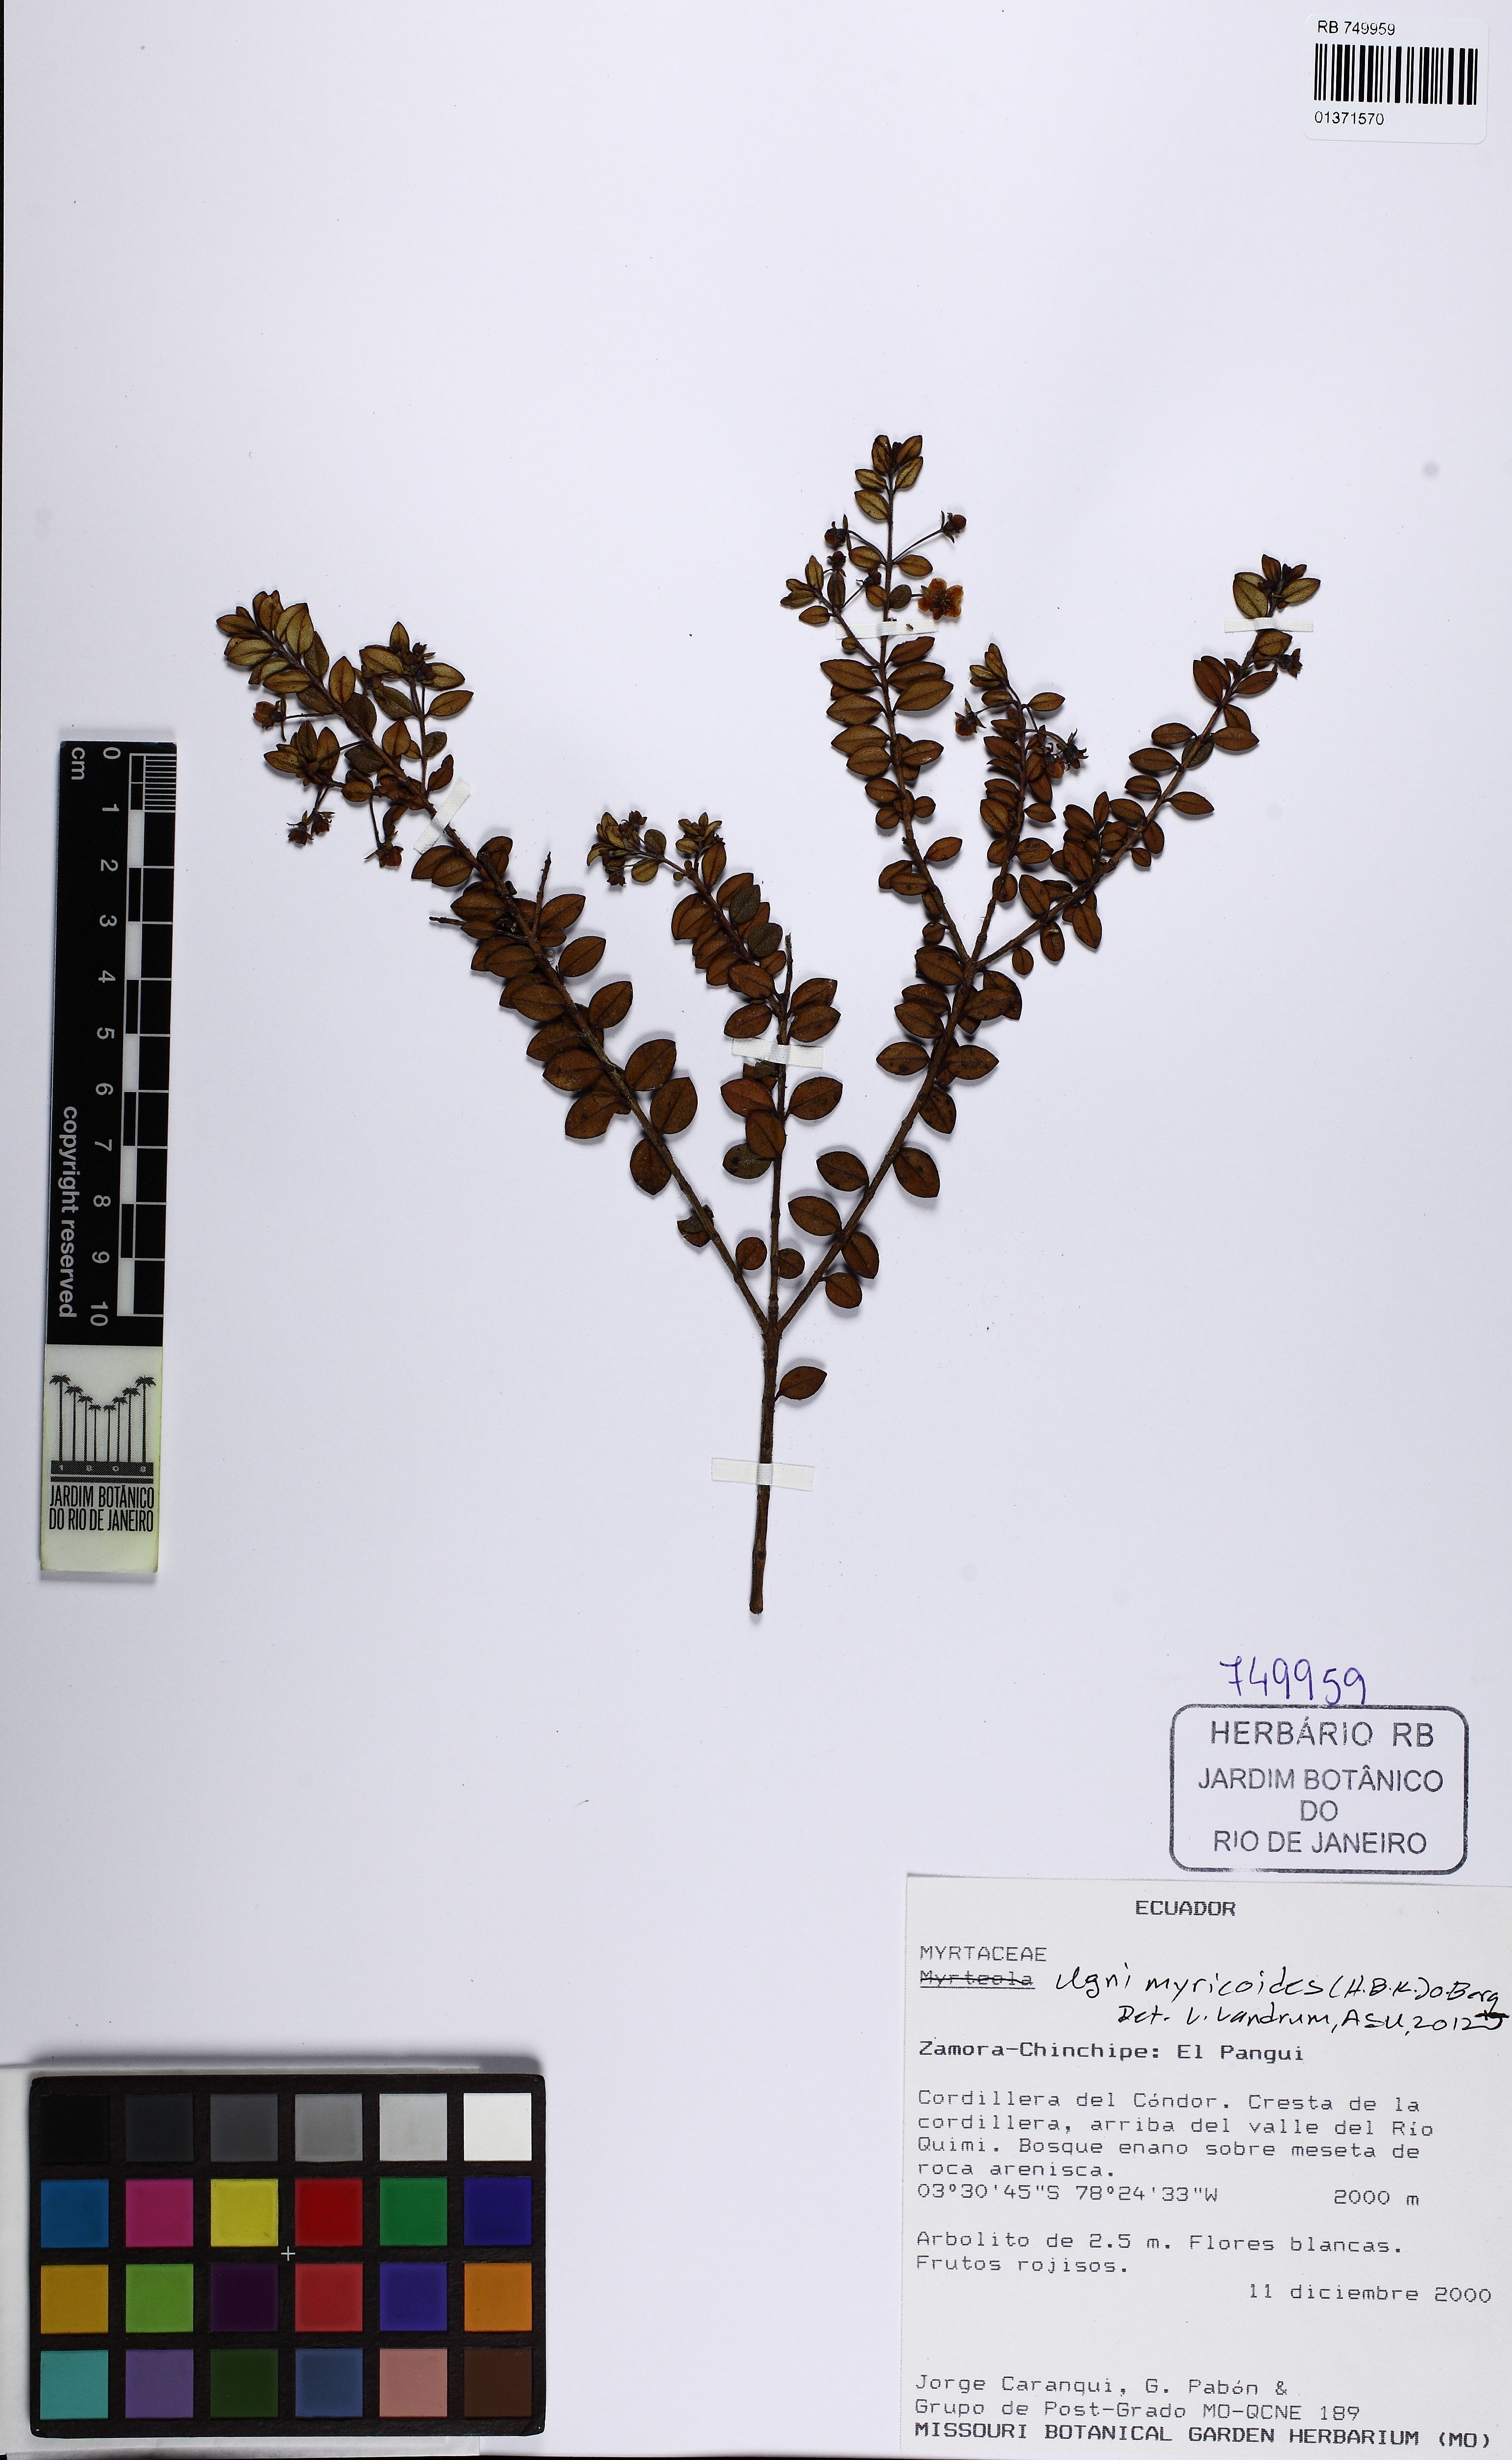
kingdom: Plantae
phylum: Tracheophyta
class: Magnoliopsida
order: Myrtales
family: Myrtaceae
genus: Ugni
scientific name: Ugni myricoides
